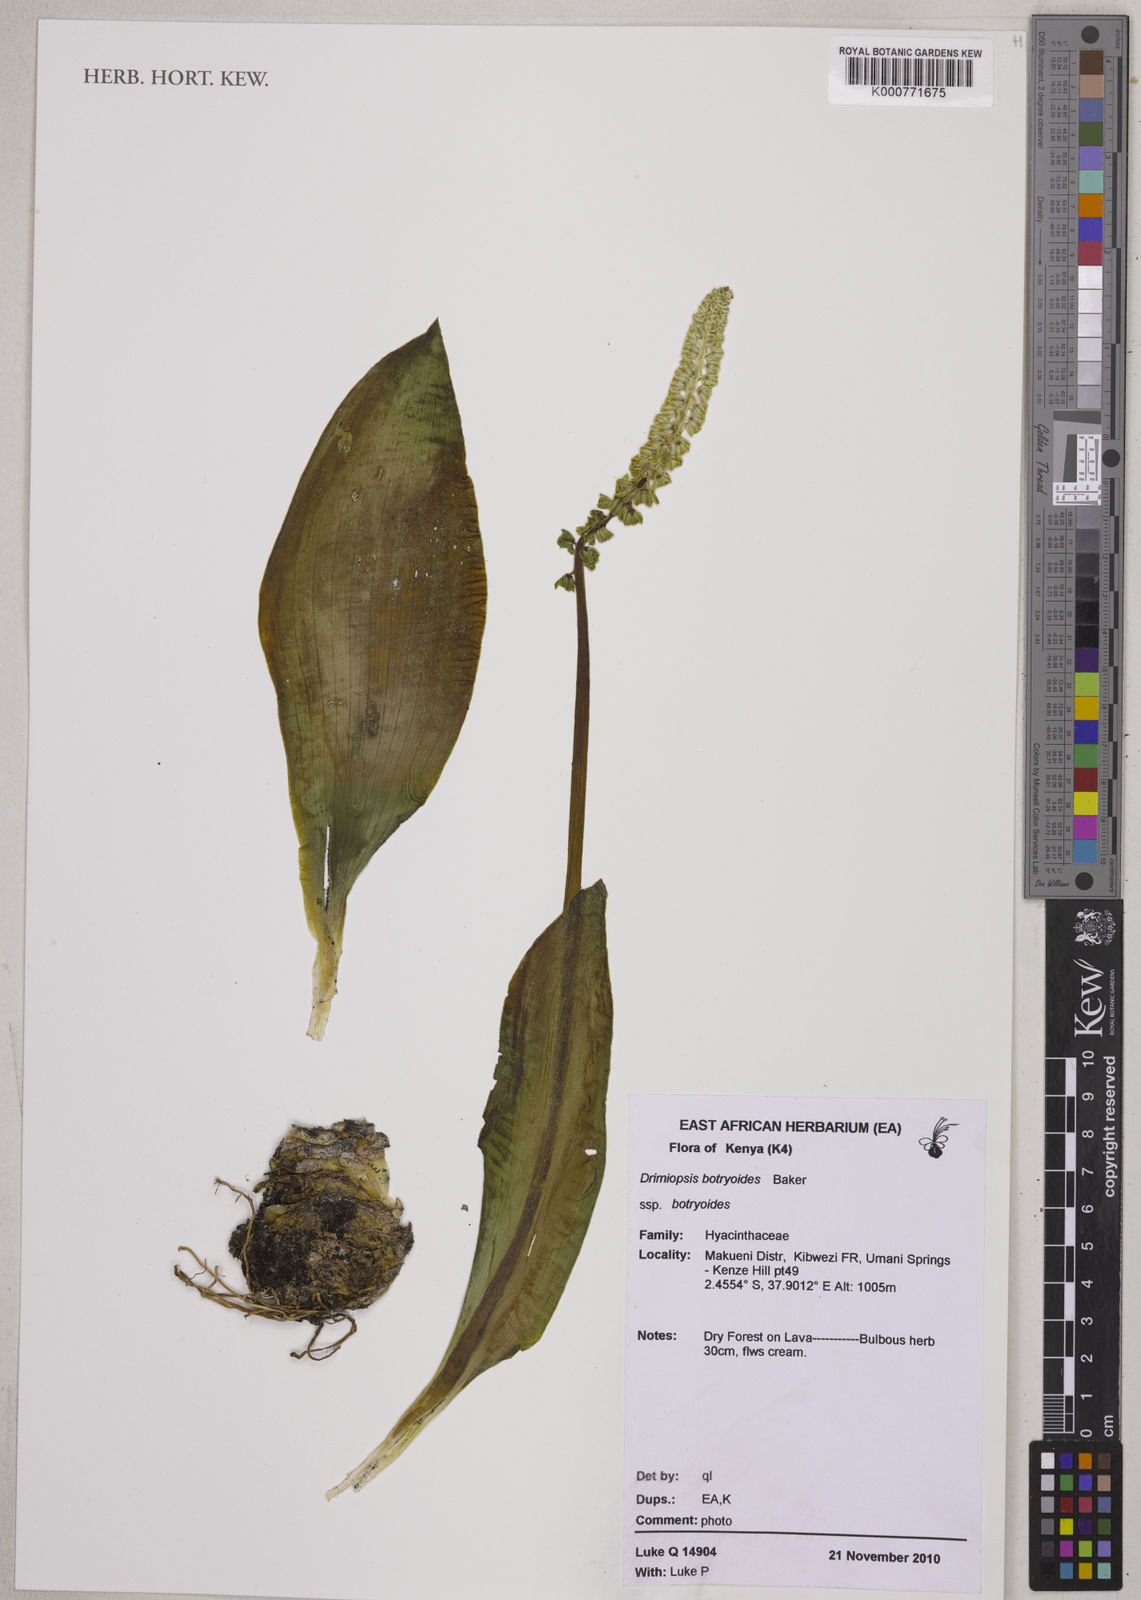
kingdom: Plantae
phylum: Tracheophyta
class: Liliopsida
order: Asparagales
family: Asparagaceae
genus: Drimiopsis
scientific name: Drimiopsis botryoides
